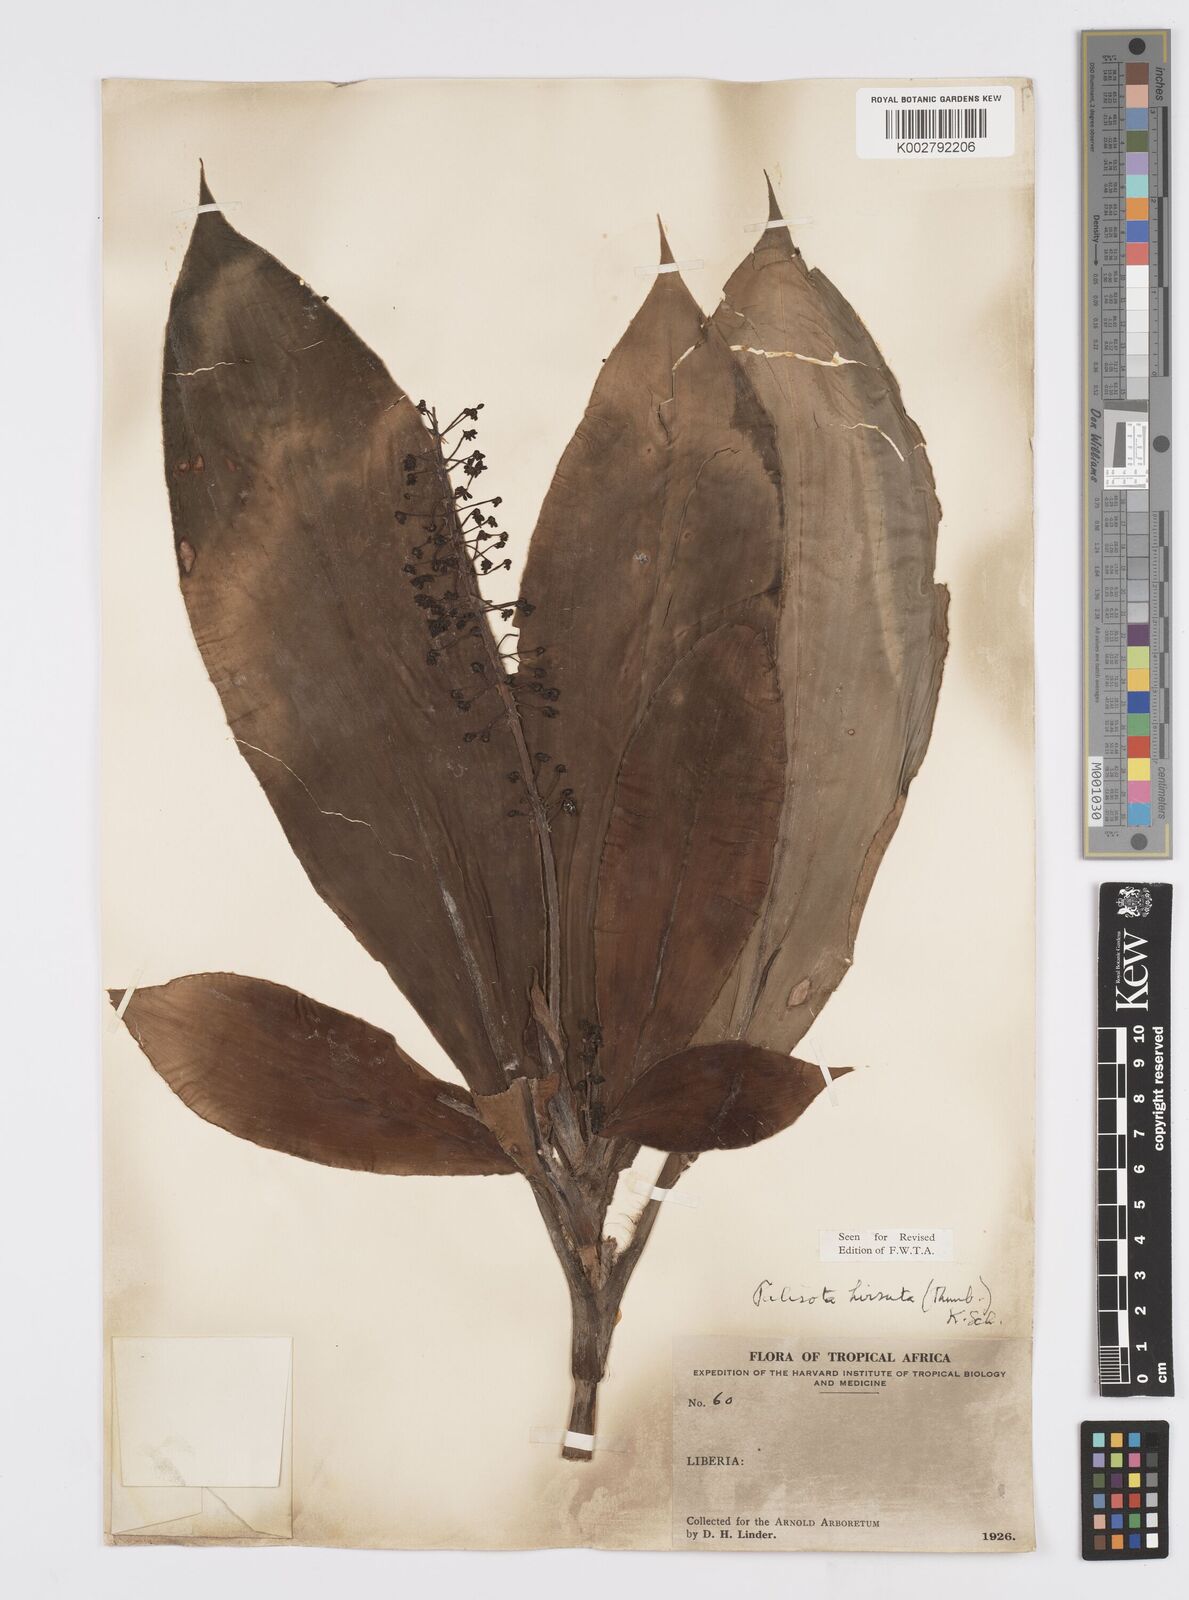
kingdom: Plantae
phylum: Tracheophyta
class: Liliopsida
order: Commelinales
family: Commelinaceae
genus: Palisota
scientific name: Palisota hirsuta
